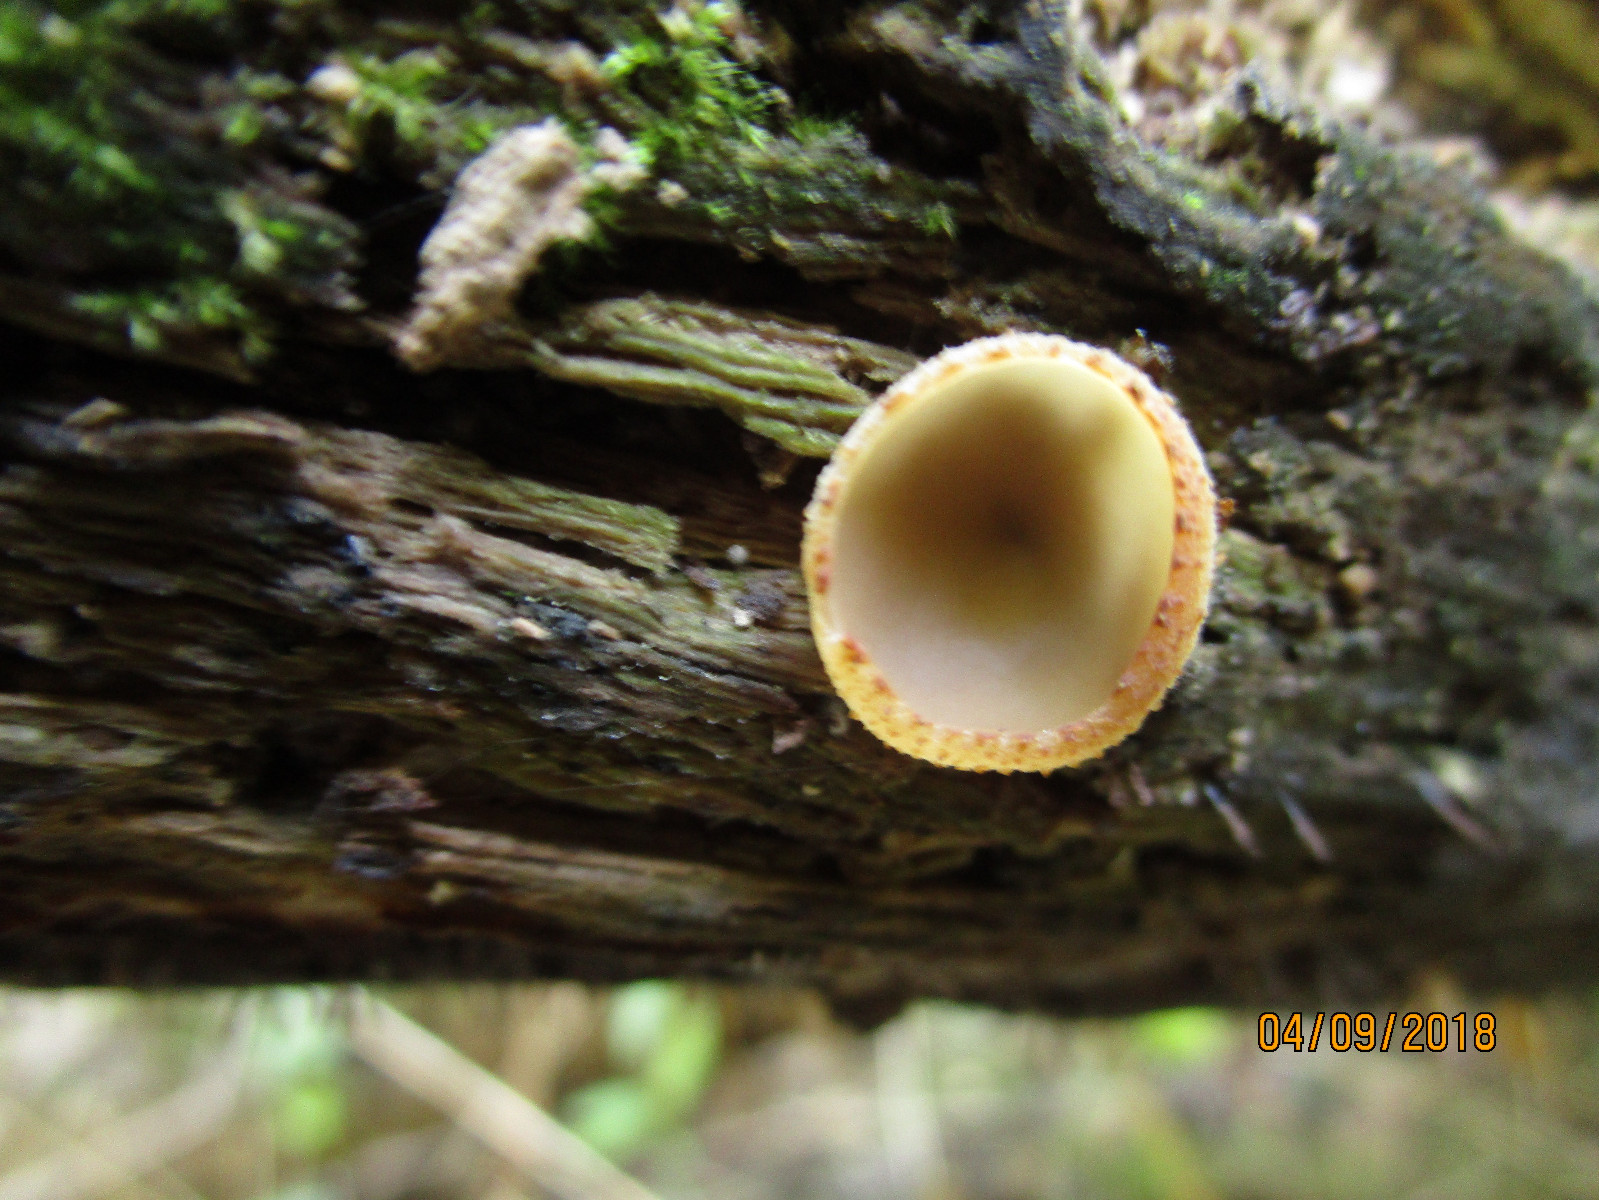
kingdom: Fungi
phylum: Ascomycota
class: Pezizomycetes
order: Pezizales
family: Pezizaceae
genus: Peziza
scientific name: Peziza varia
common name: Ved-bægersvamp
